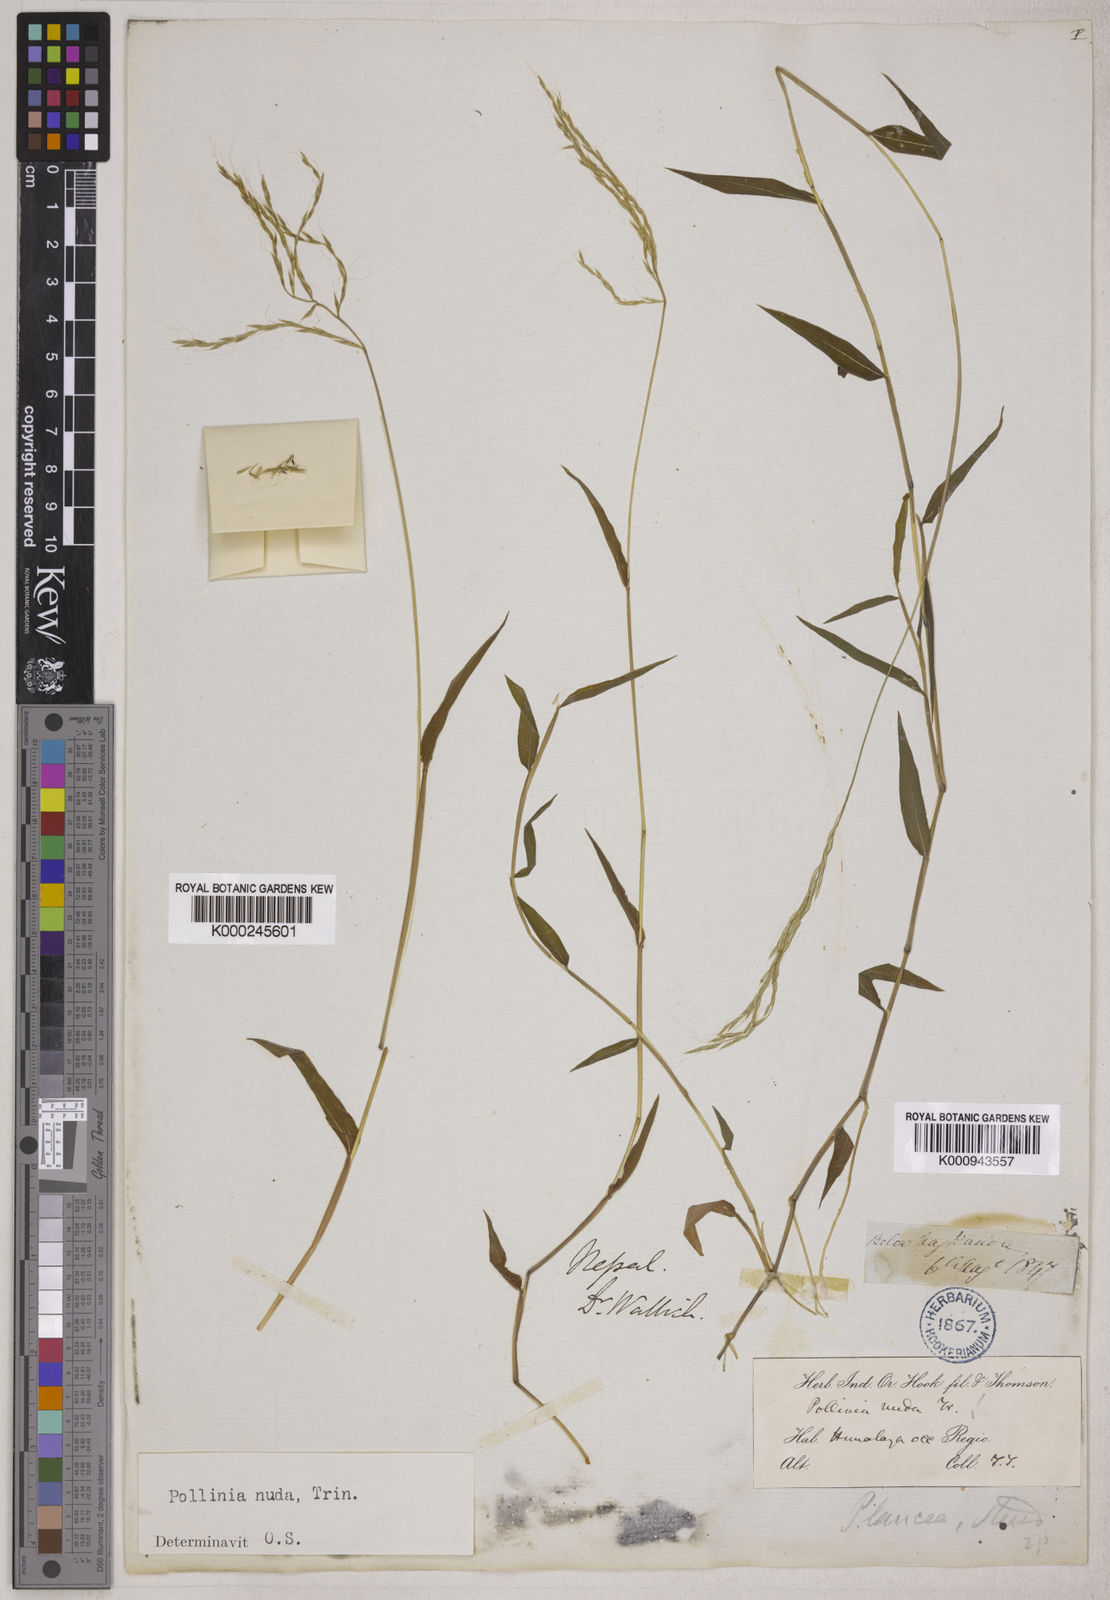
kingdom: Plantae
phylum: Tracheophyta
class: Liliopsida
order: Poales
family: Poaceae
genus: Microstegium
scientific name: Microstegium nudum
